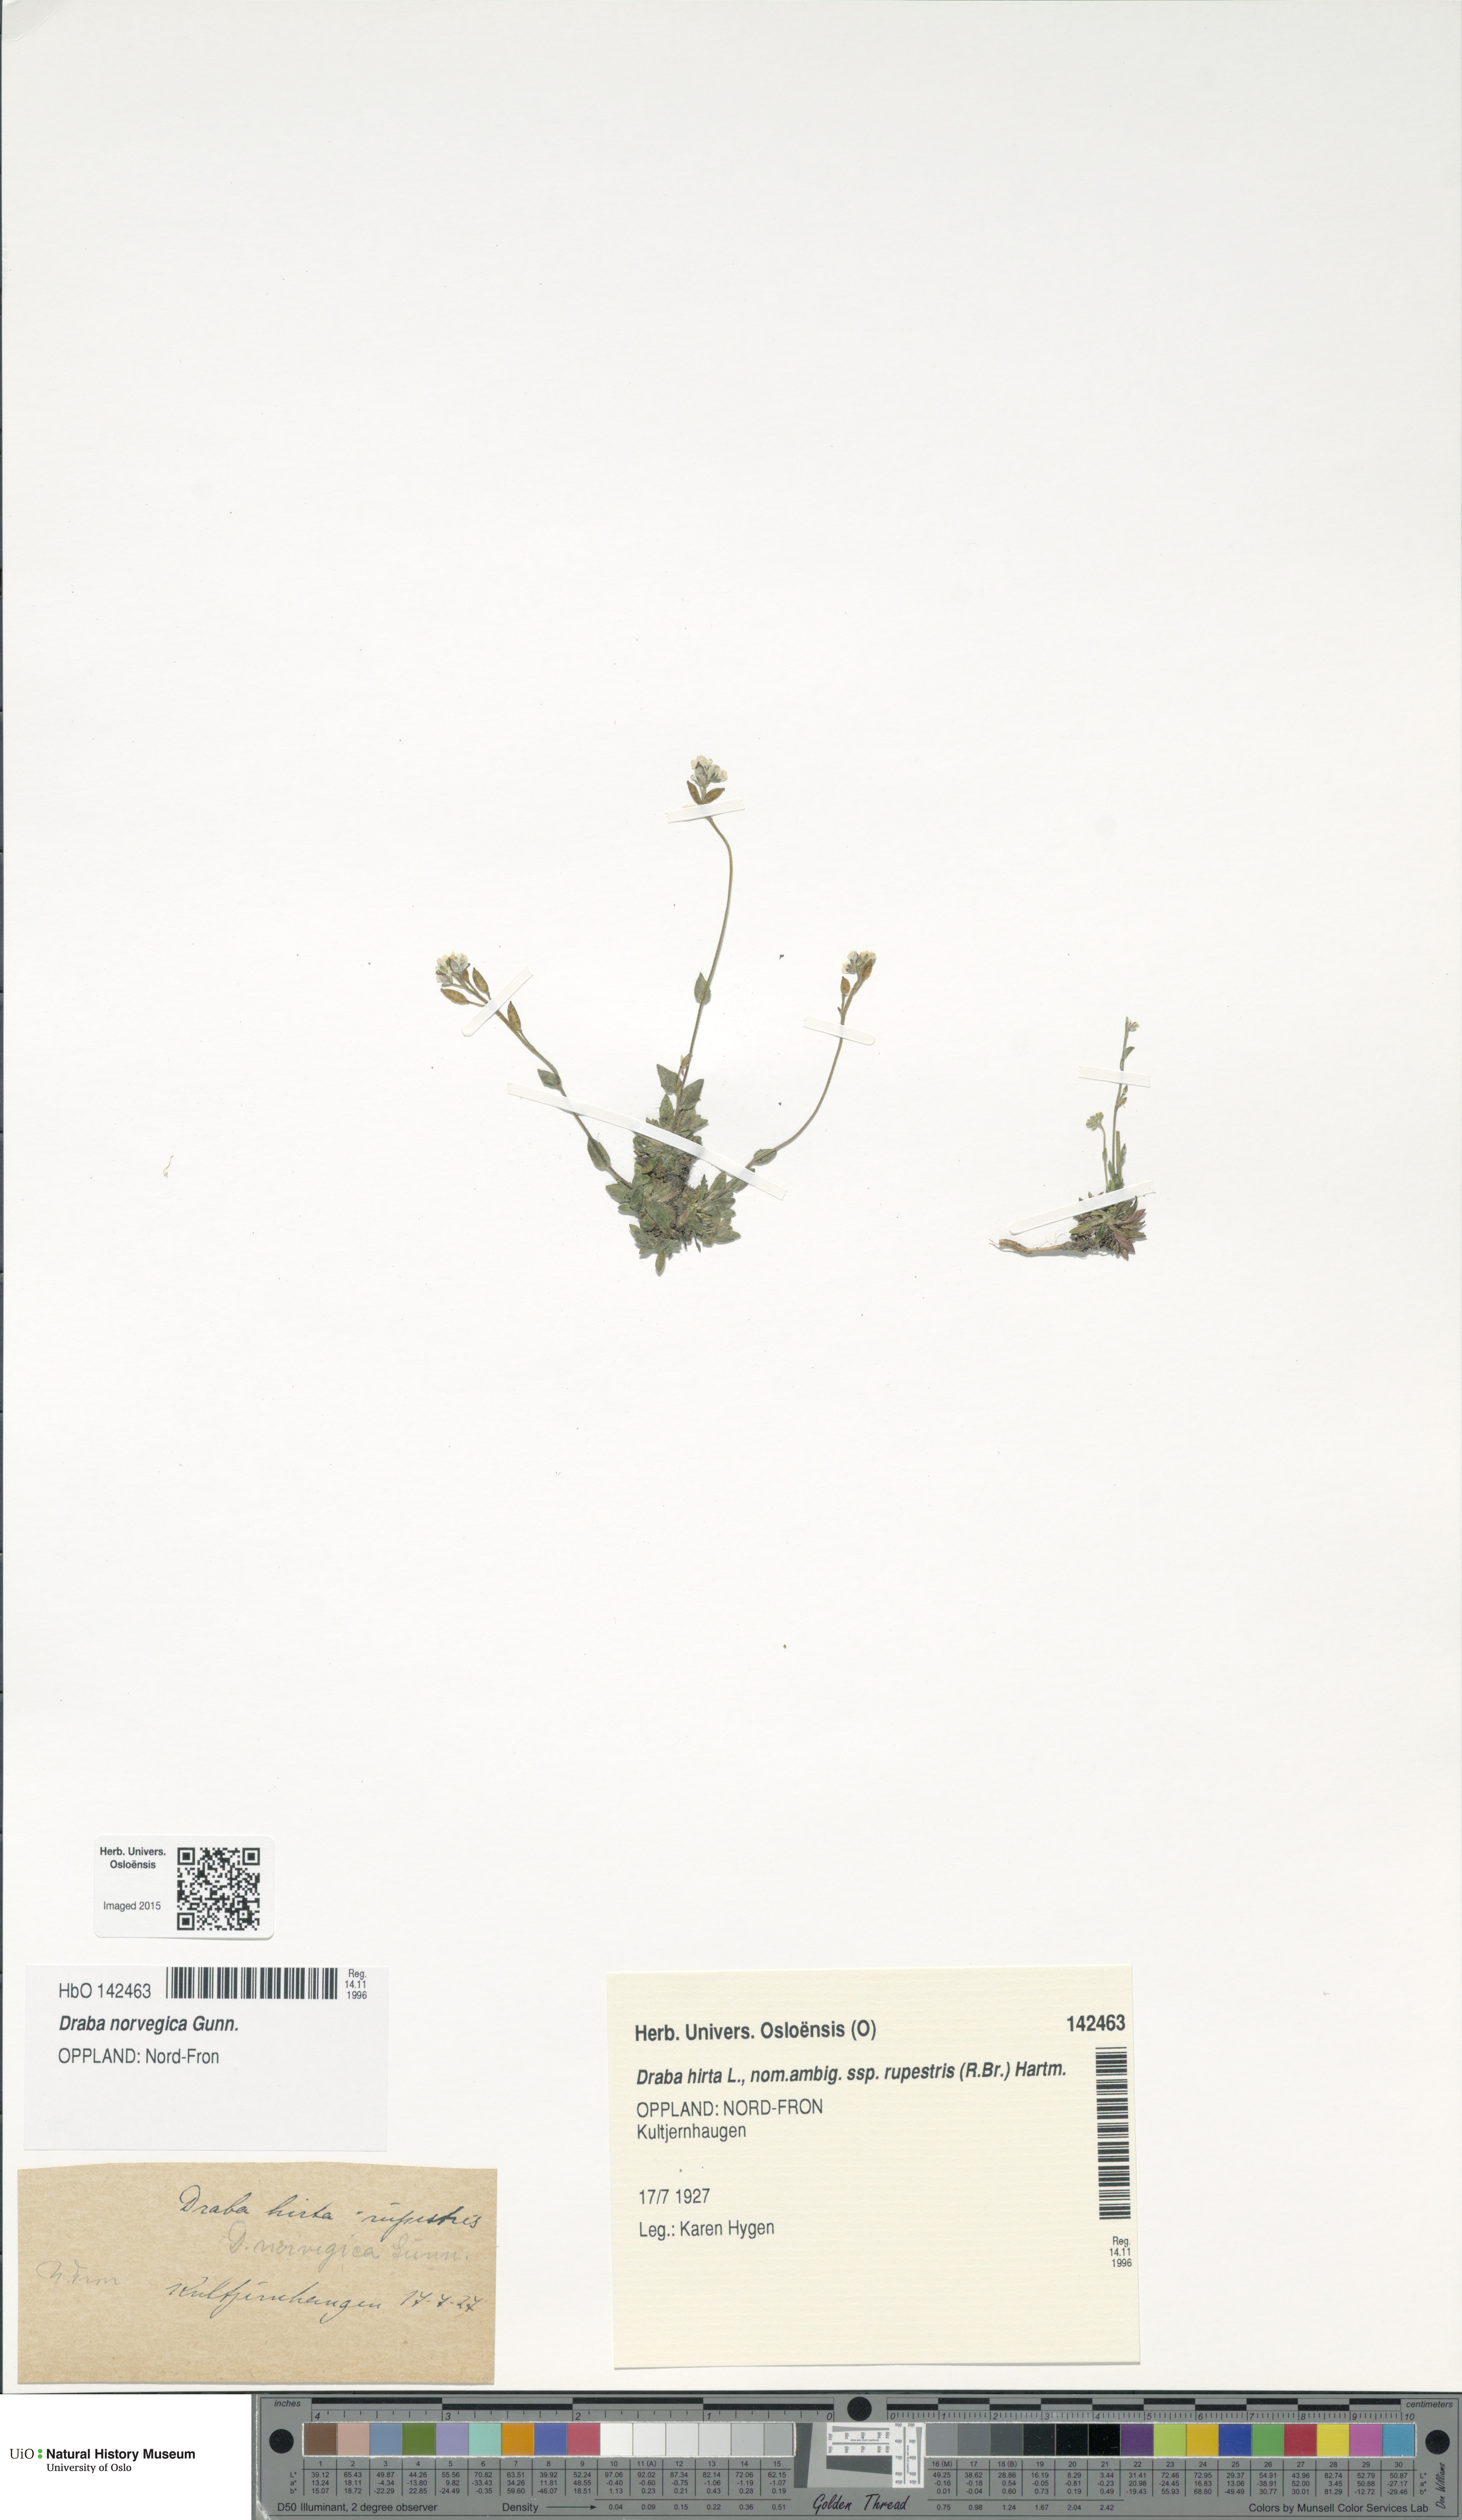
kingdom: Plantae
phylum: Tracheophyta
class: Magnoliopsida
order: Brassicales
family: Brassicaceae
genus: Draba
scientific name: Draba norvegica
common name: Rock whitlowgrass
